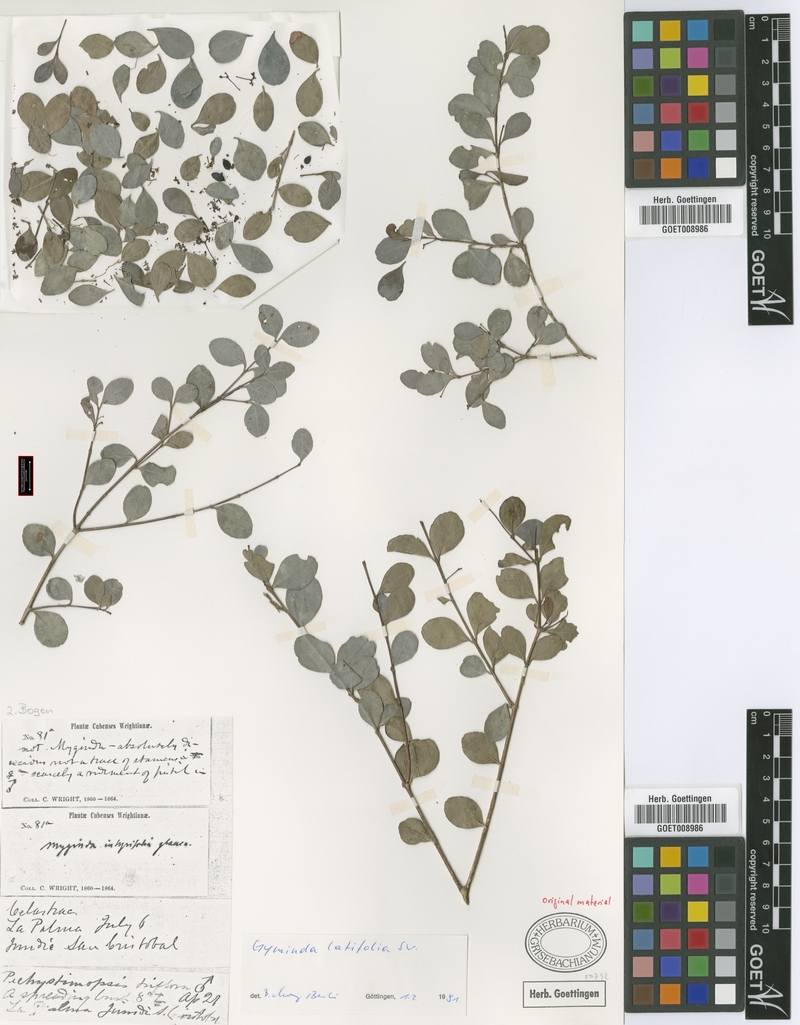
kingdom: Plantae
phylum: Tracheophyta
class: Magnoliopsida
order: Celastrales
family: Celastraceae
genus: Gyminda
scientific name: Gyminda latifolia
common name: False boxwood
